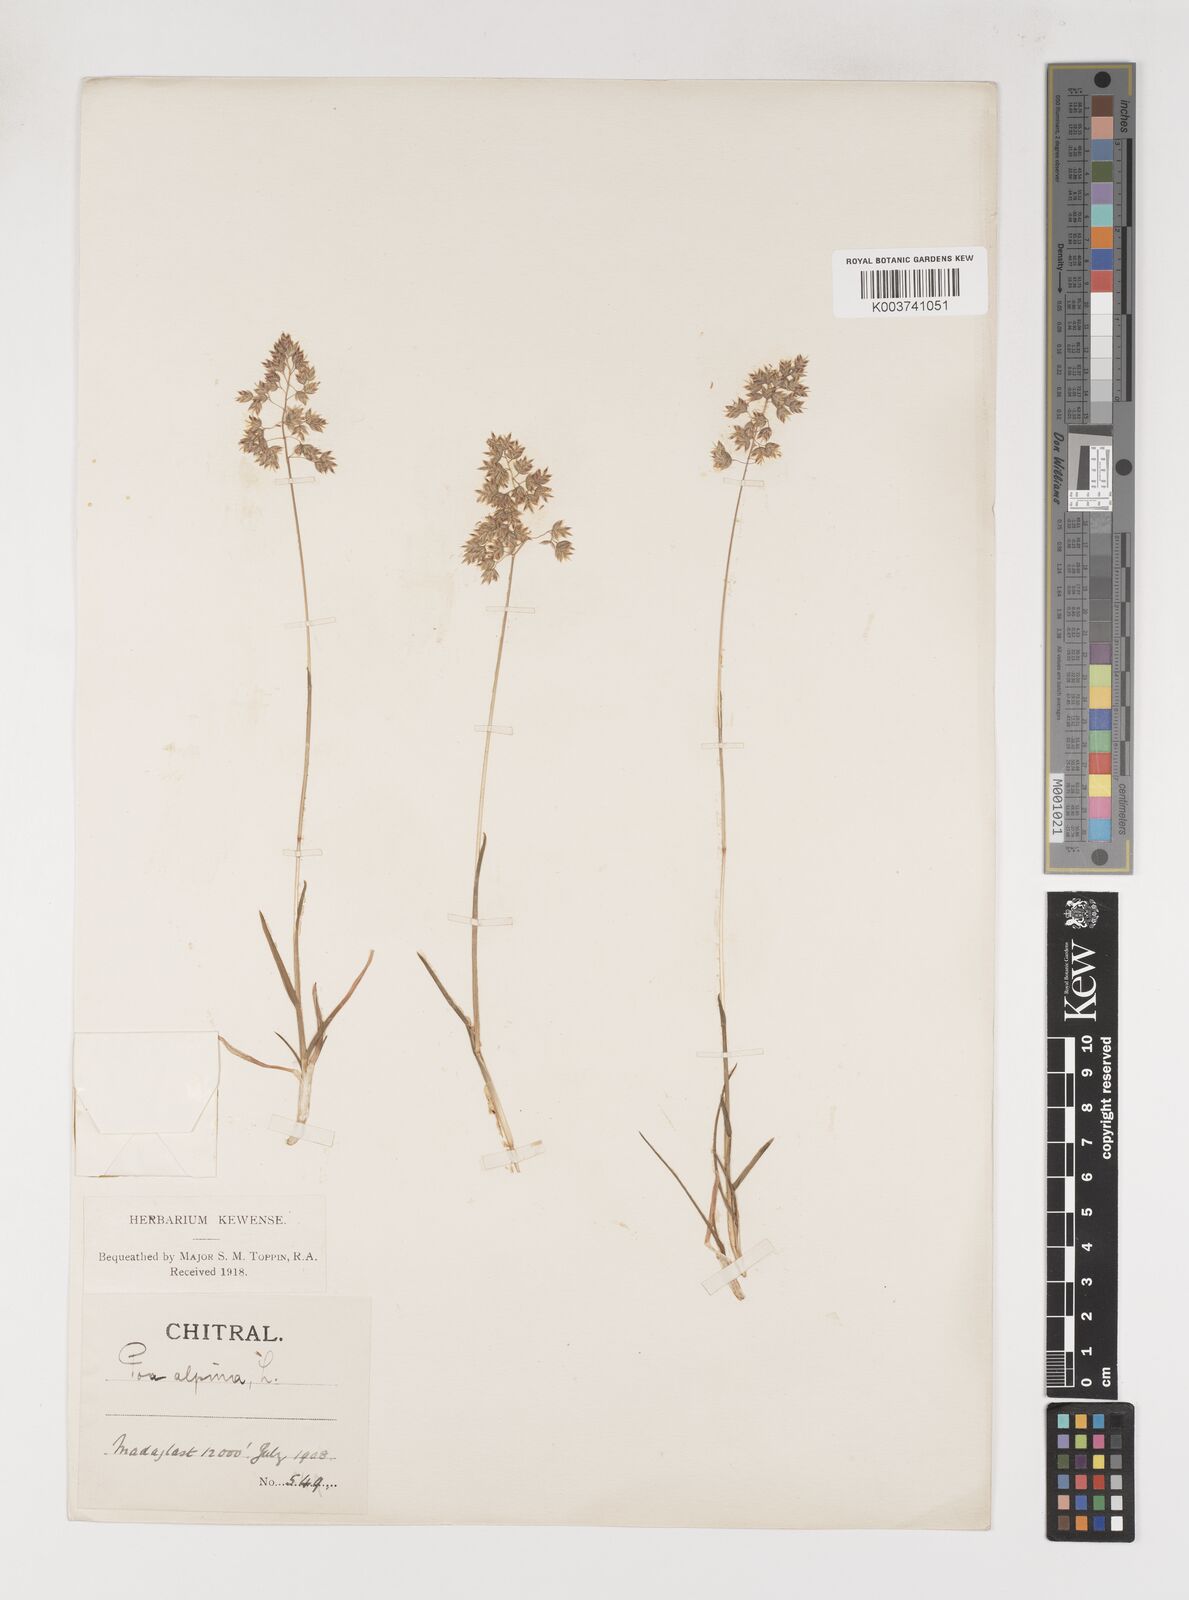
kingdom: Plantae
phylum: Tracheophyta
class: Liliopsida
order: Poales
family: Poaceae
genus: Poa
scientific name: Poa alpina
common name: Alpine bluegrass
